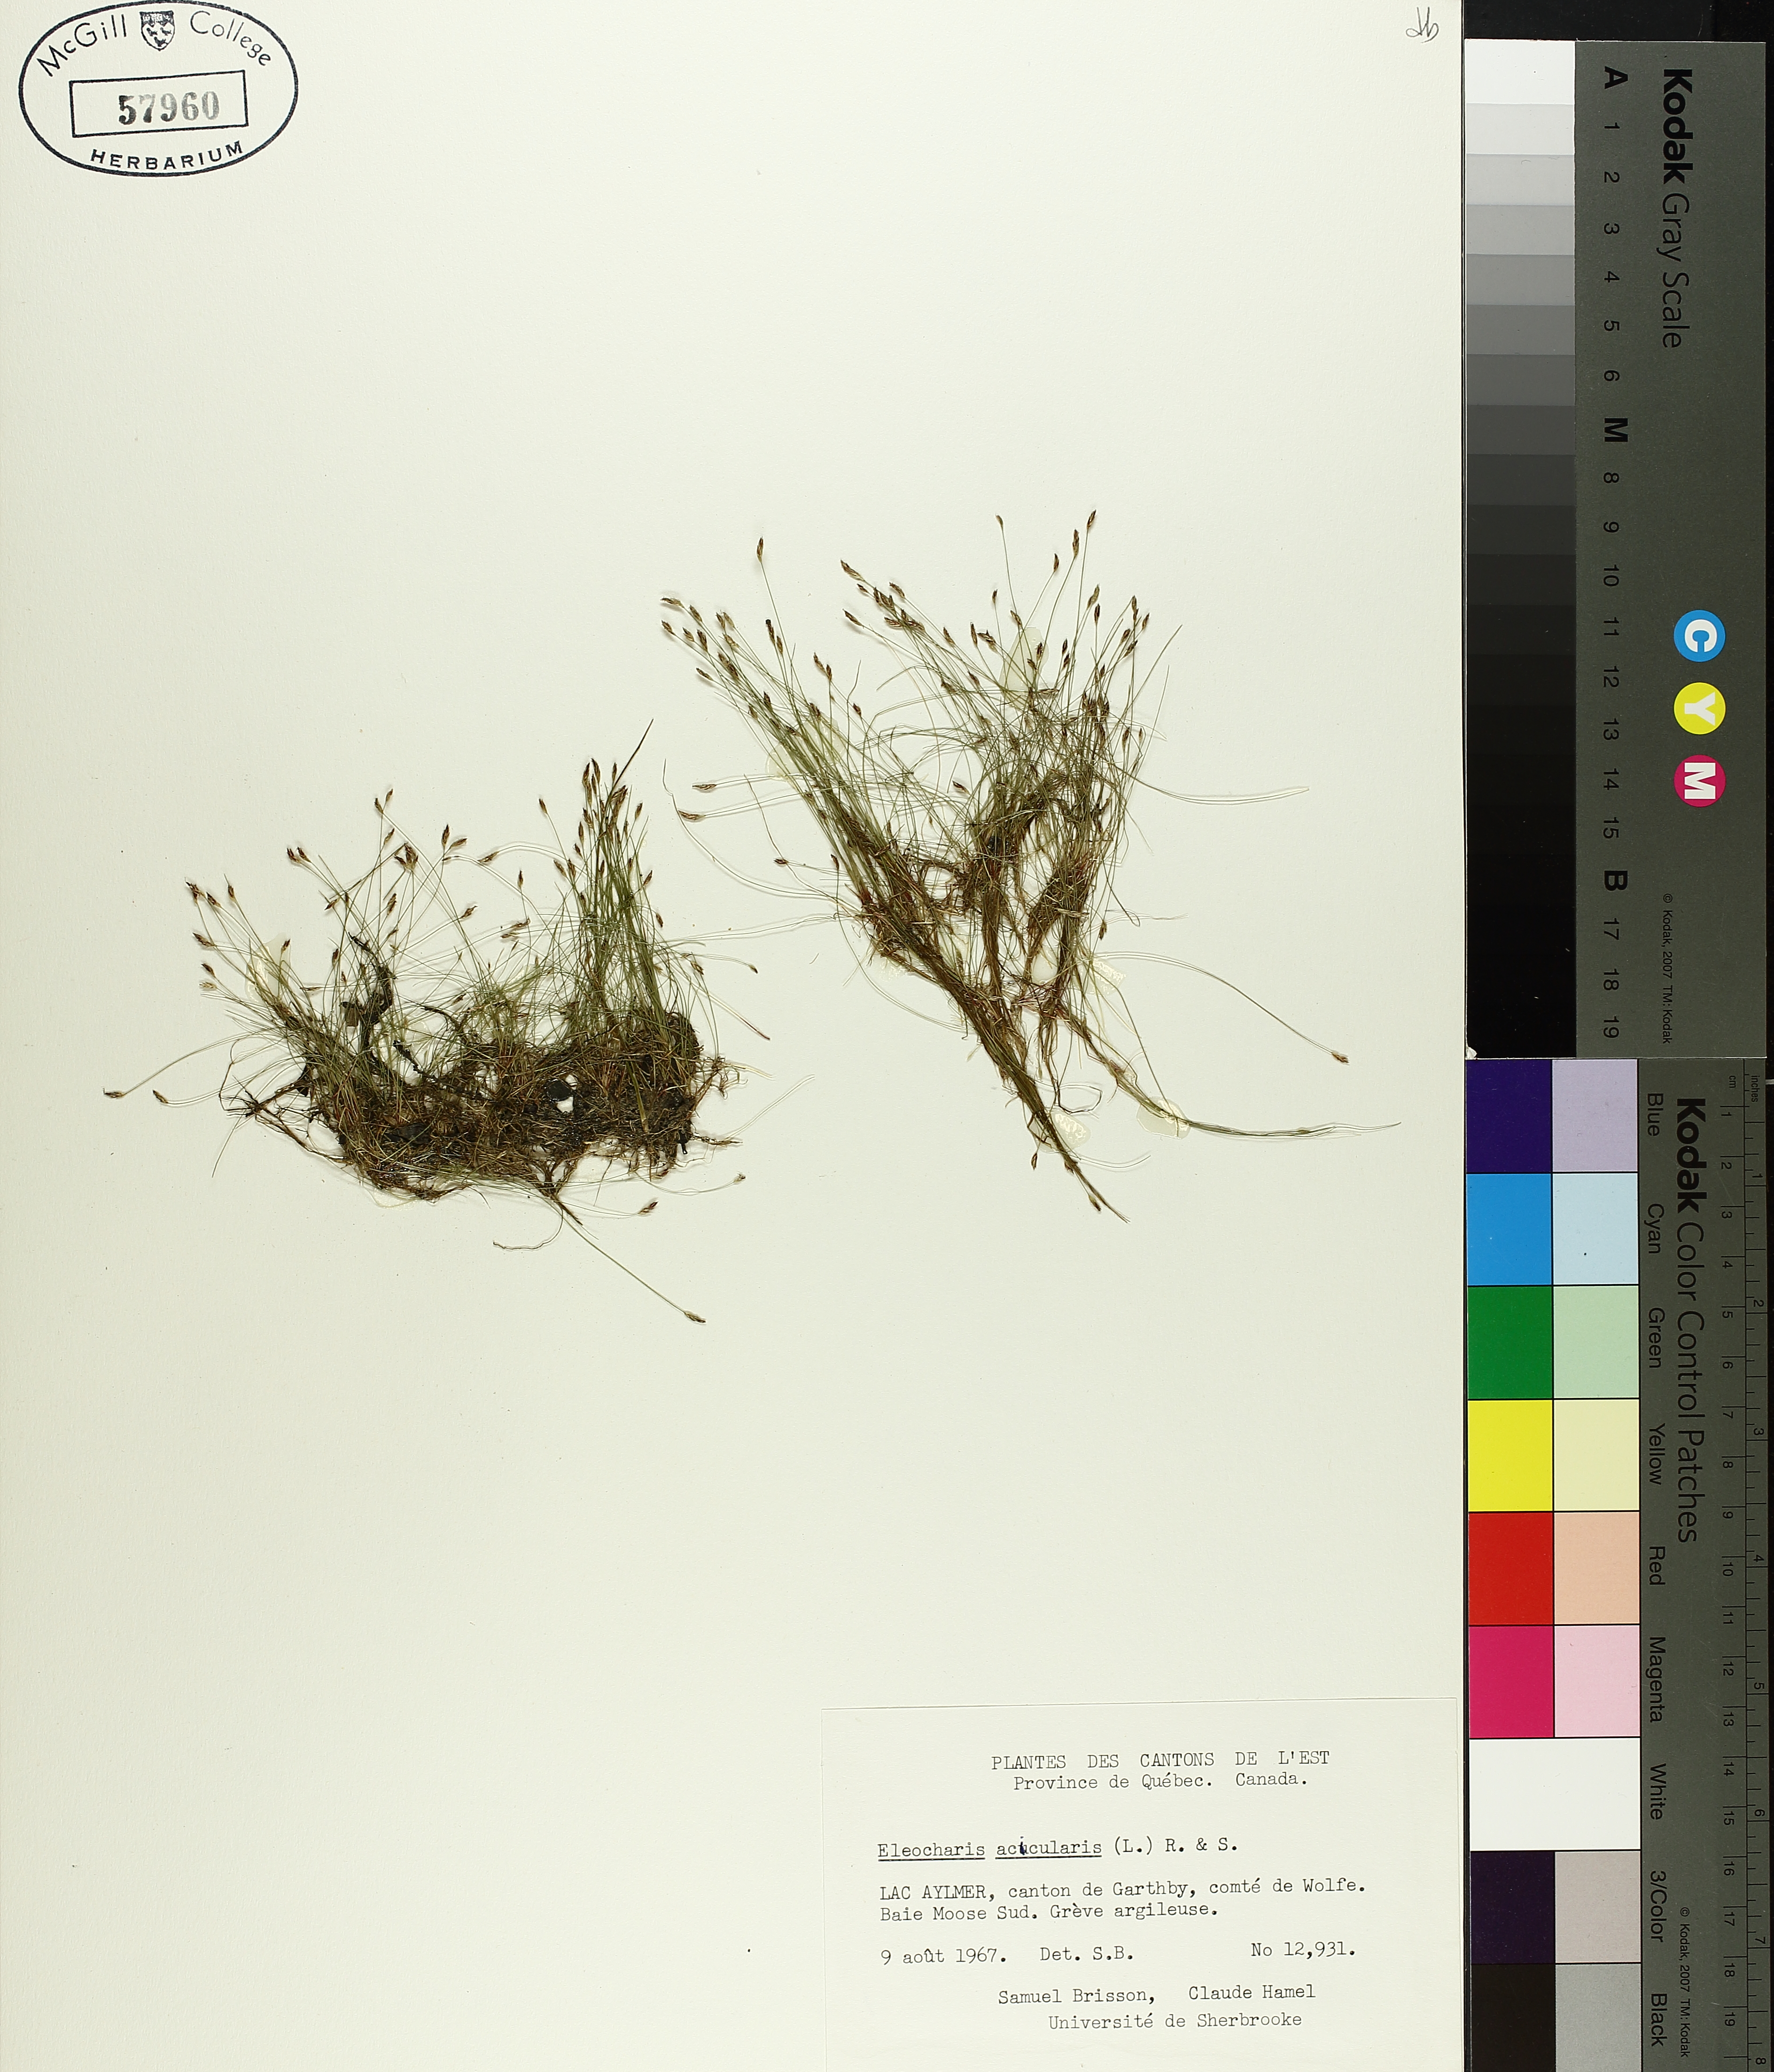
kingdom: Plantae
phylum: Tracheophyta
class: Liliopsida
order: Poales
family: Cyperaceae
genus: Eleocharis
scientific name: Eleocharis acicularis
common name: Needle spike-rush
